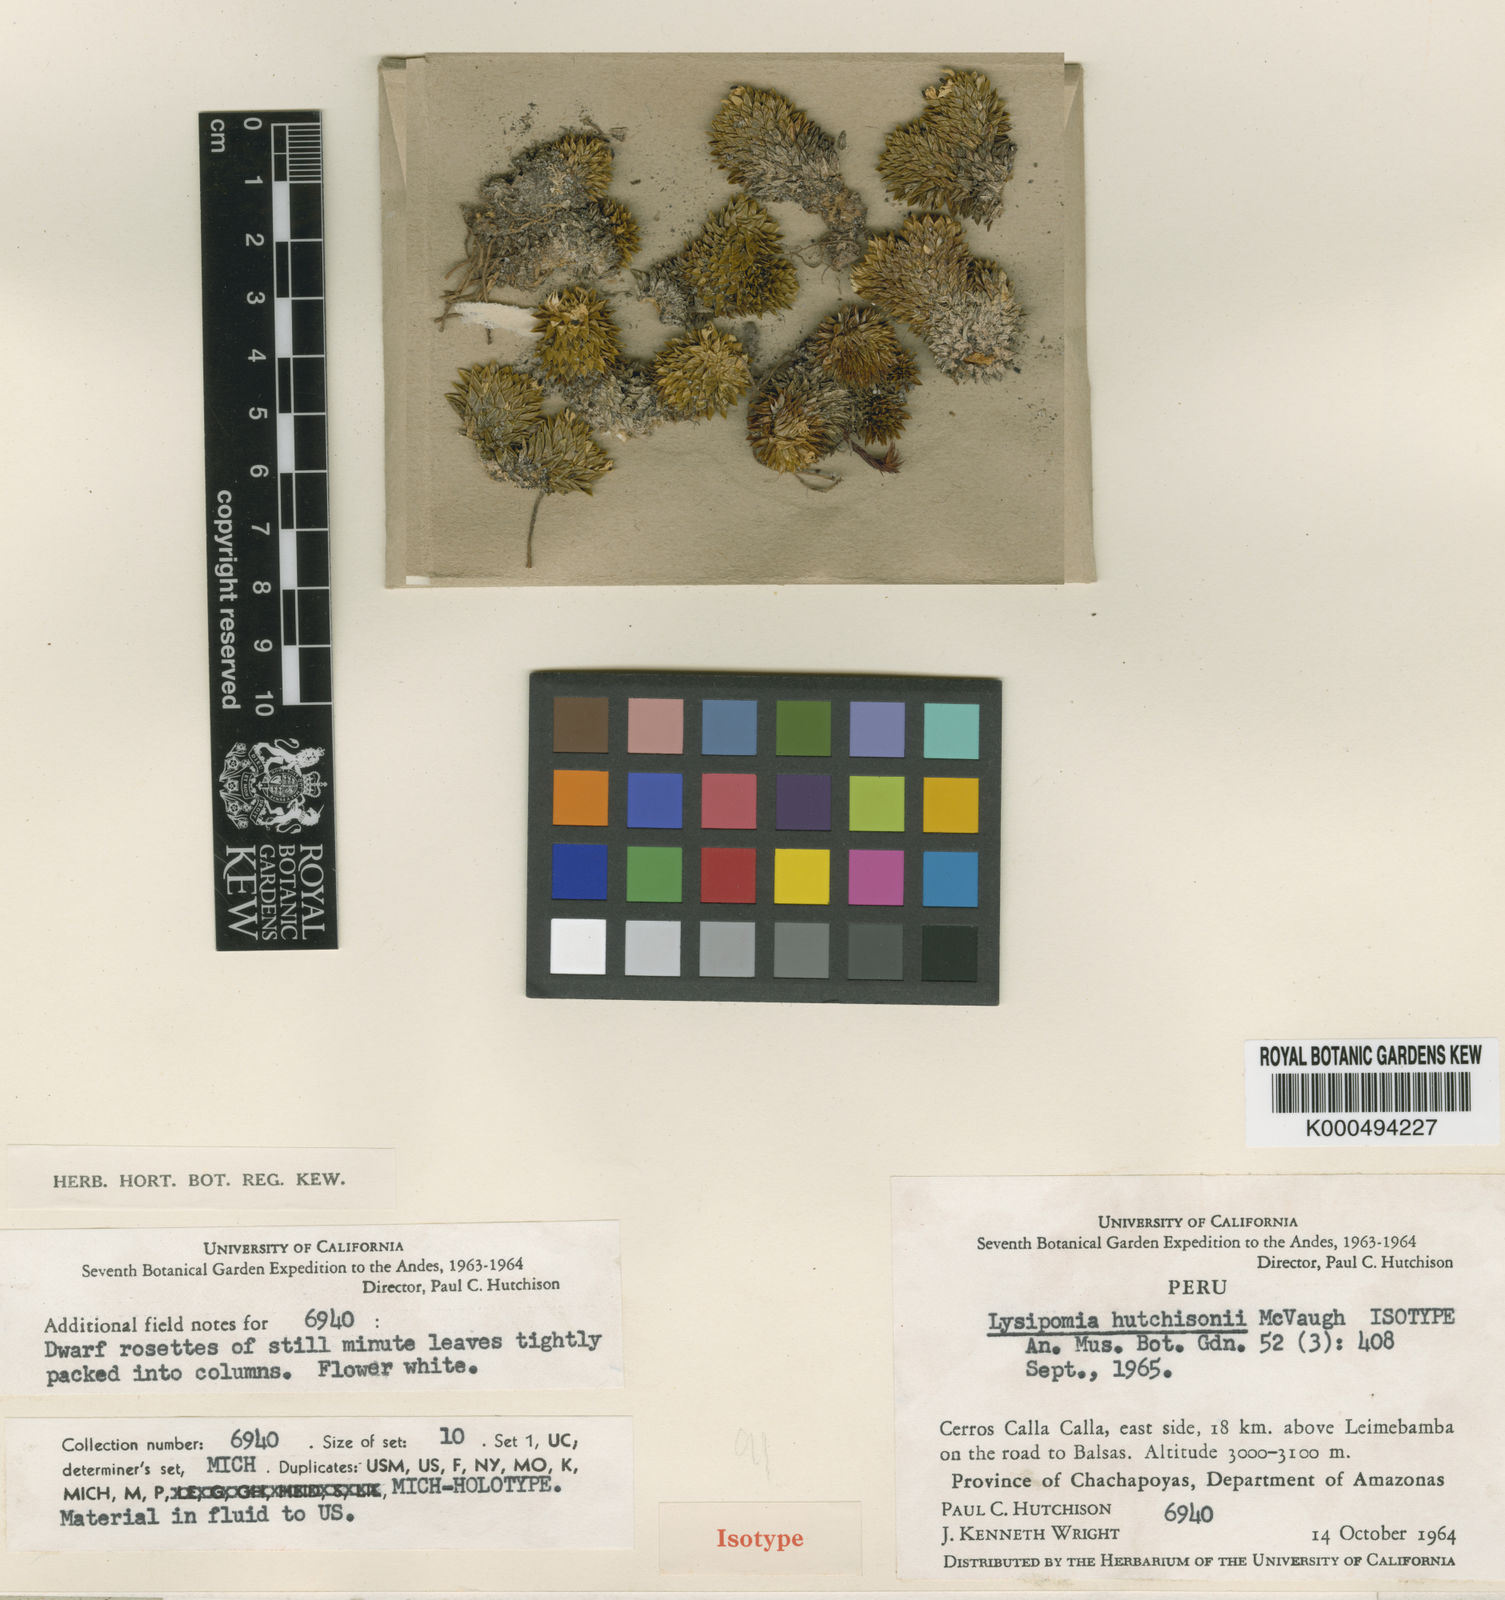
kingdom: Plantae
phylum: Tracheophyta
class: Magnoliopsida
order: Asterales
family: Campanulaceae
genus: Lysipomia
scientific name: Lysipomia
